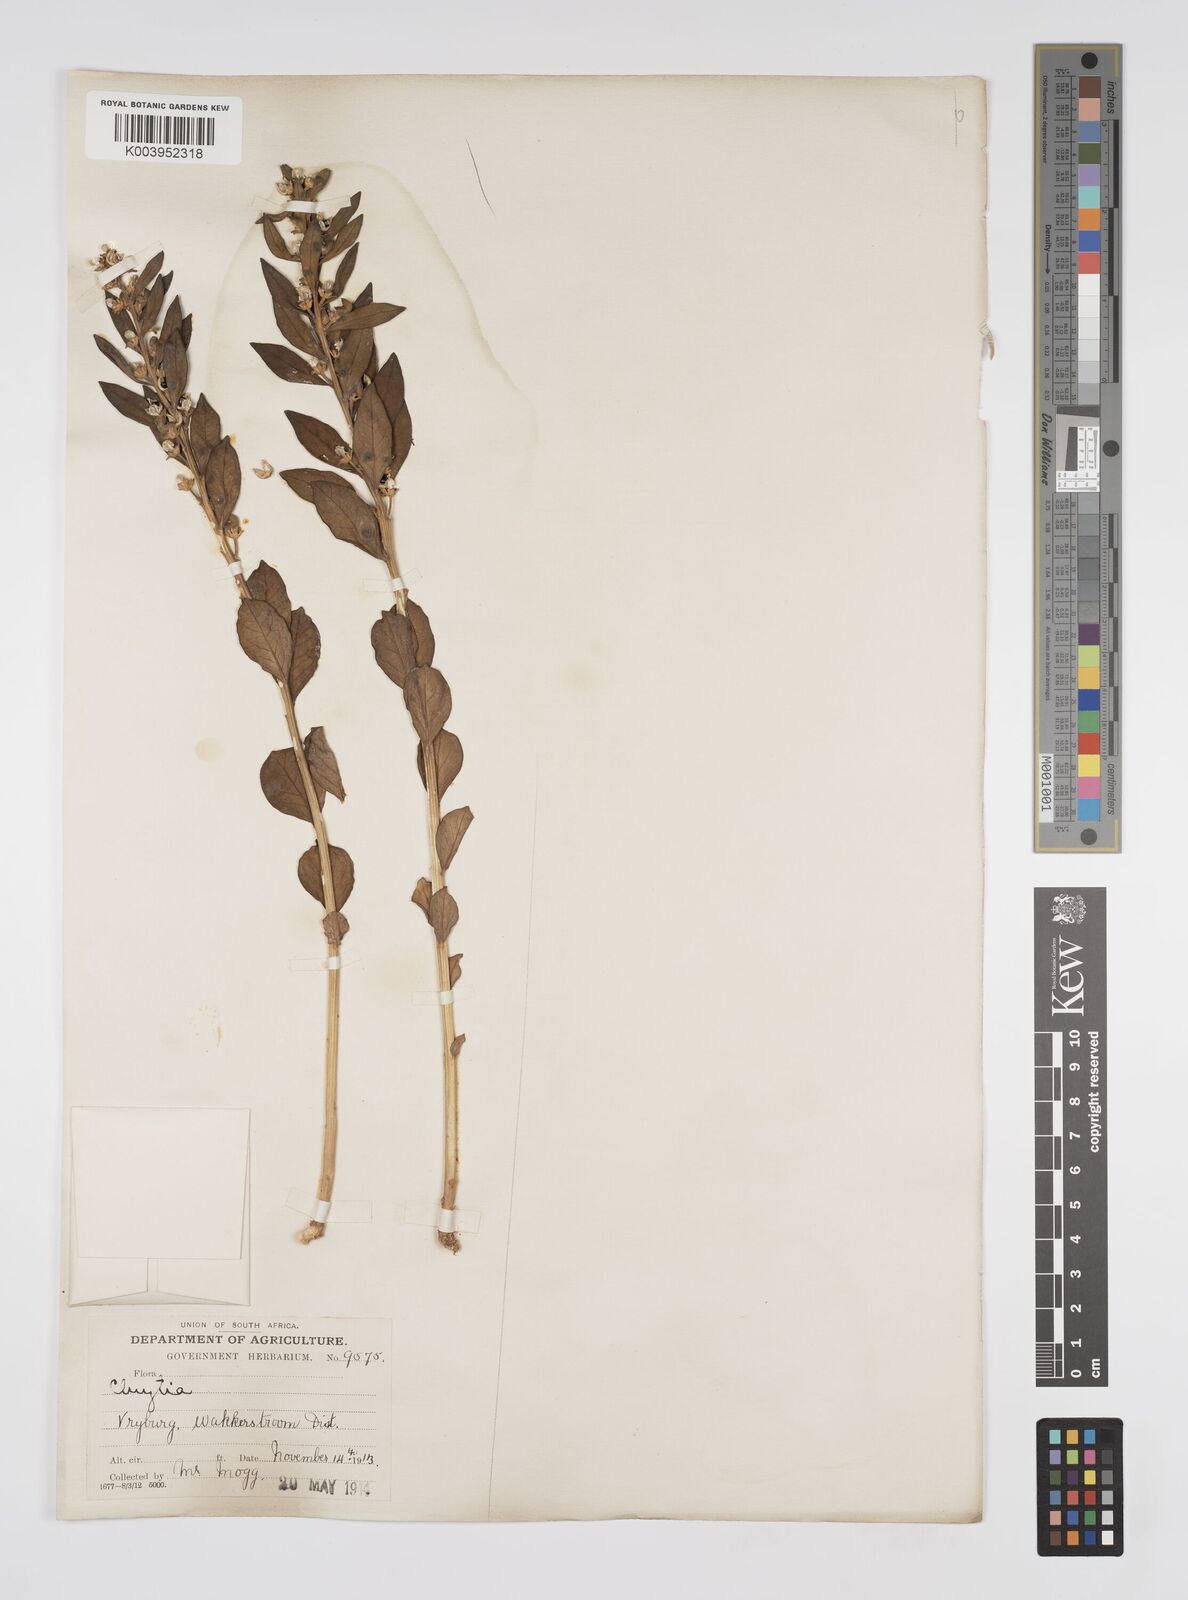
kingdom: Plantae
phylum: Tracheophyta
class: Magnoliopsida
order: Malpighiales
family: Peraceae
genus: Clutia
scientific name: Clutia
